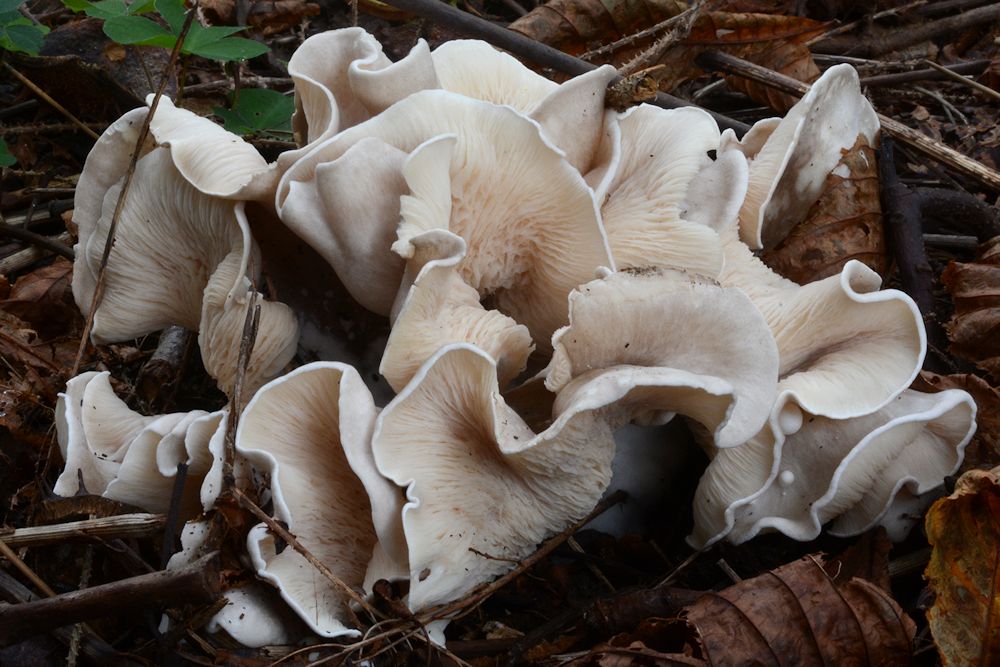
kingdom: Fungi
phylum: Basidiomycota
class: Agaricomycetes
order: Agaricales
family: Marasmiaceae
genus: Pleurocybella
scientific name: Pleurocybella porrigens
